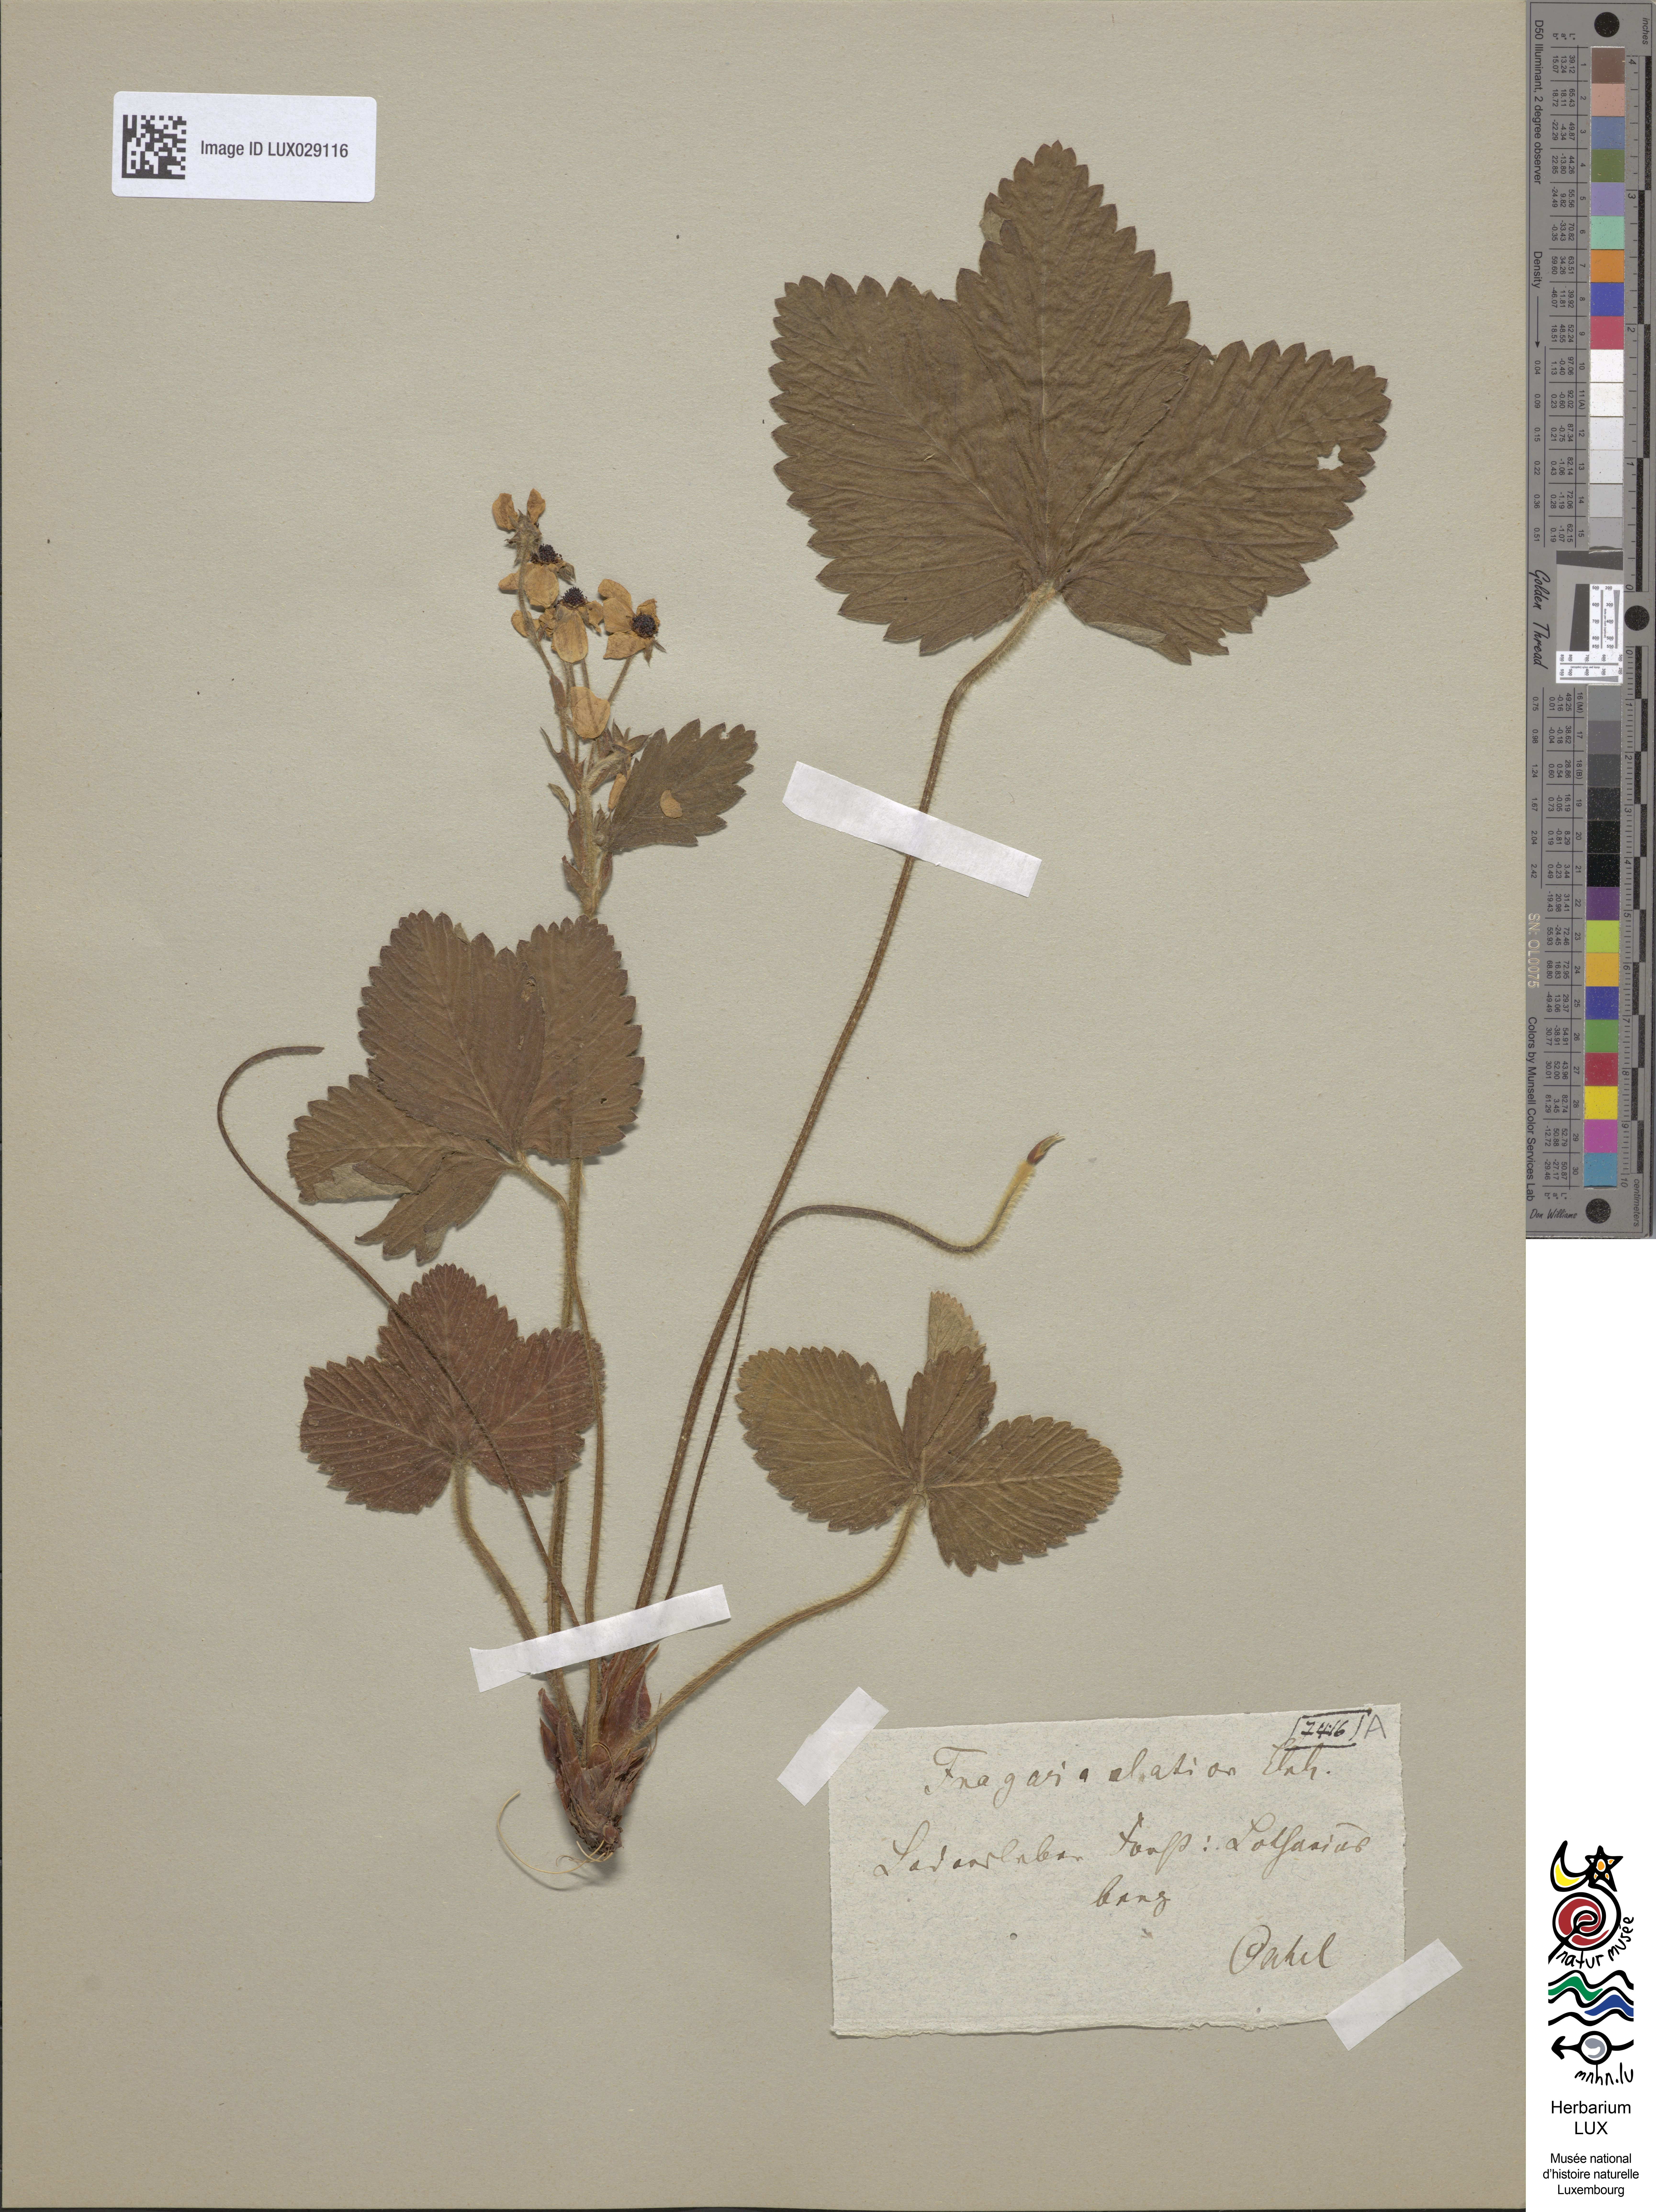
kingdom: Plantae
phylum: Tracheophyta
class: Magnoliopsida
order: Rosales
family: Rosaceae
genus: Fragaria
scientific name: Fragaria moschata
